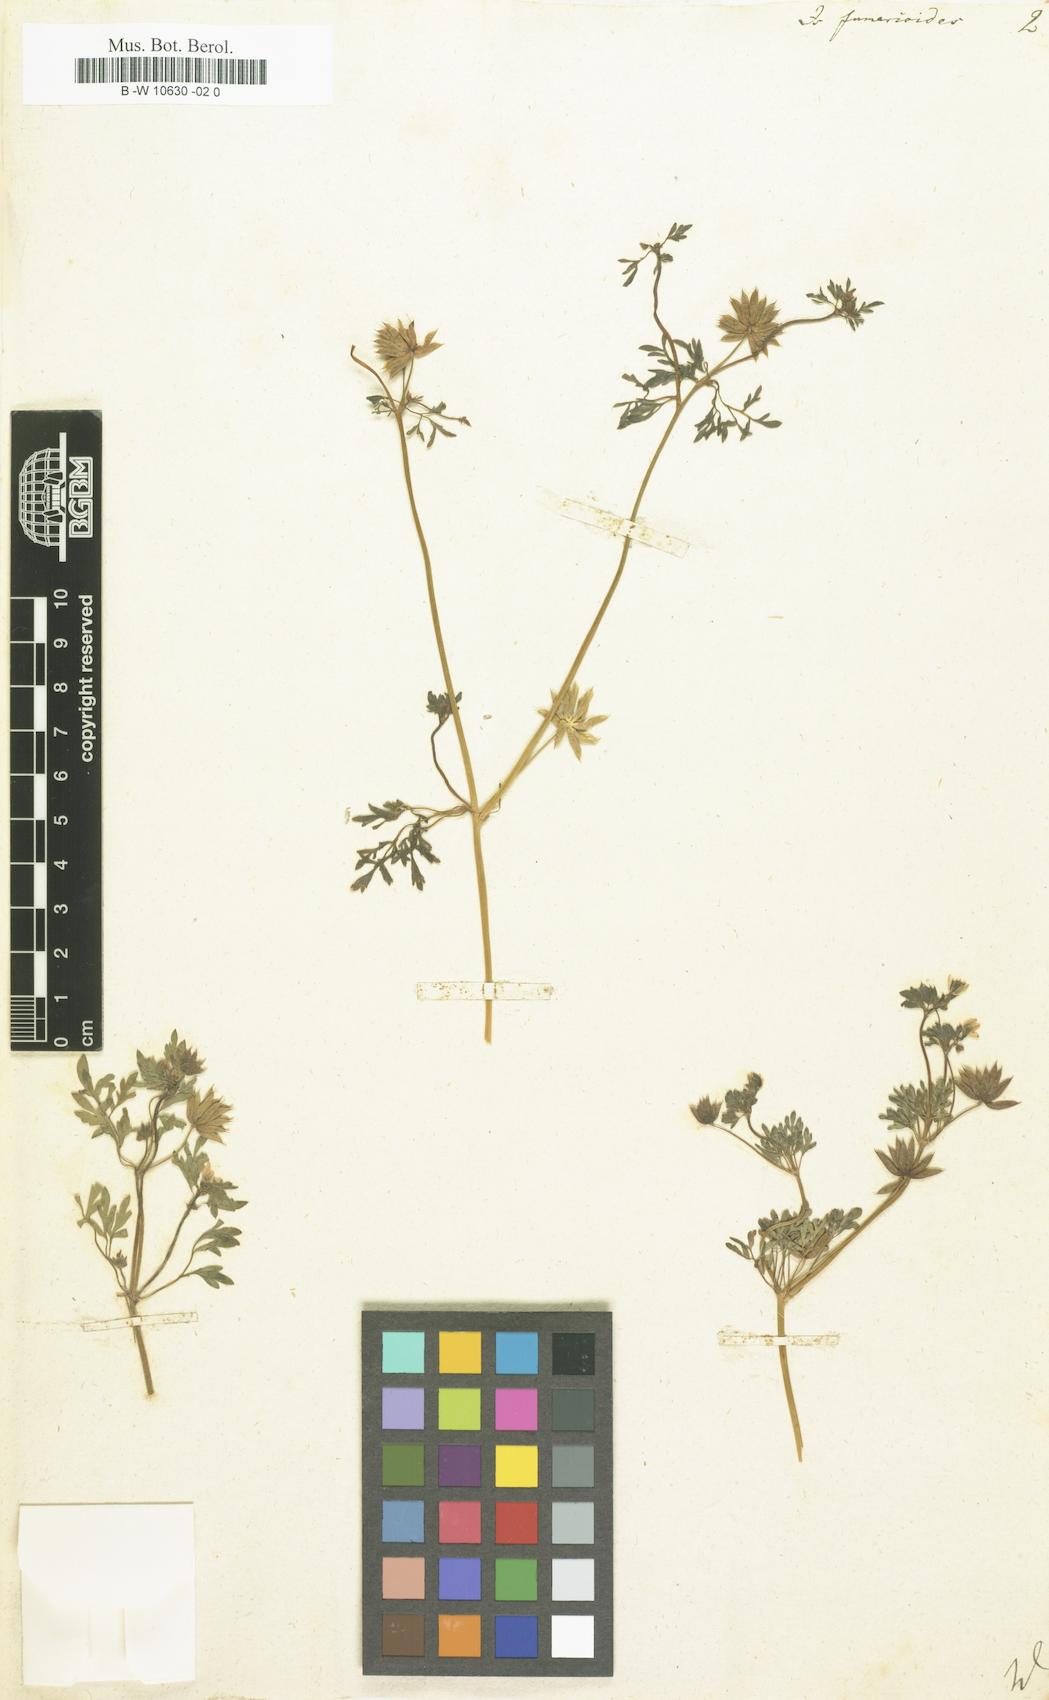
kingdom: Plantae
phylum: Tracheophyta
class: Magnoliopsida
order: Ranunculales
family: Ranunculaceae
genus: Leptopyrum
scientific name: Leptopyrum fumarioides
